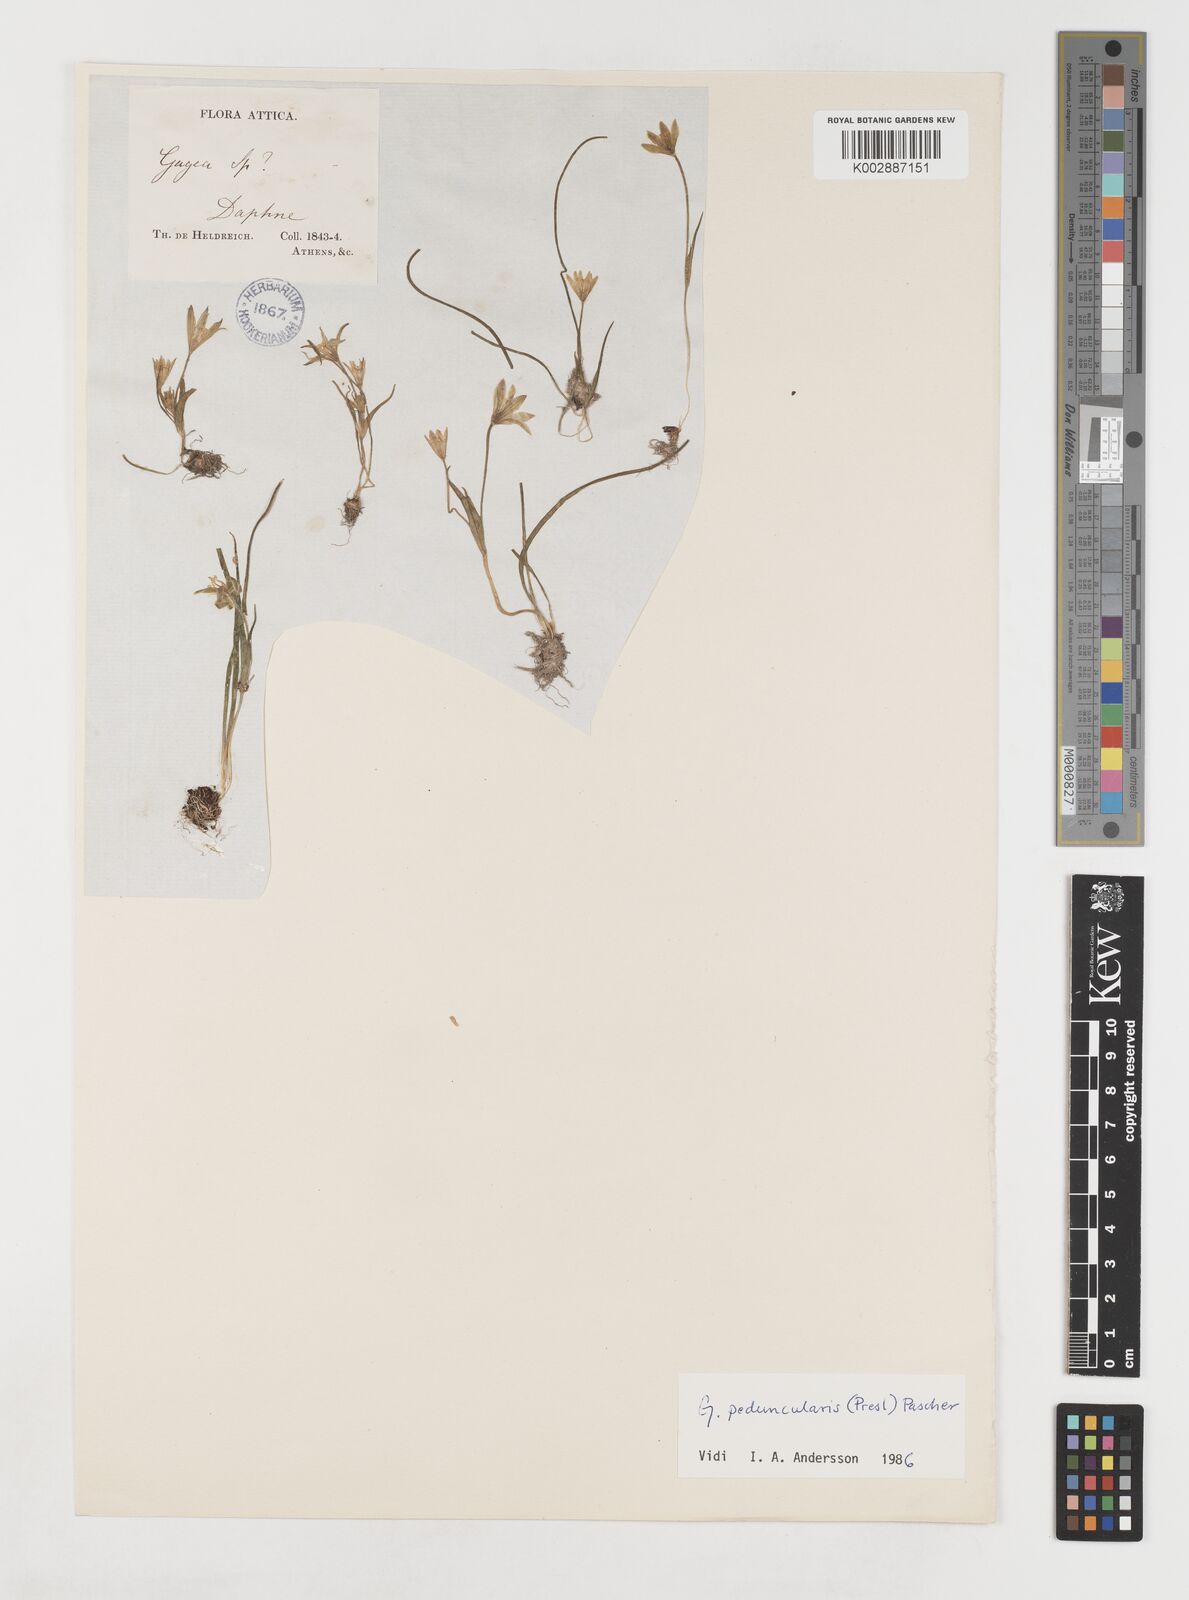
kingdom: Plantae
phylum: Tracheophyta
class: Liliopsida
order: Liliales
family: Liliaceae
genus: Gagea
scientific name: Gagea peduncularis
